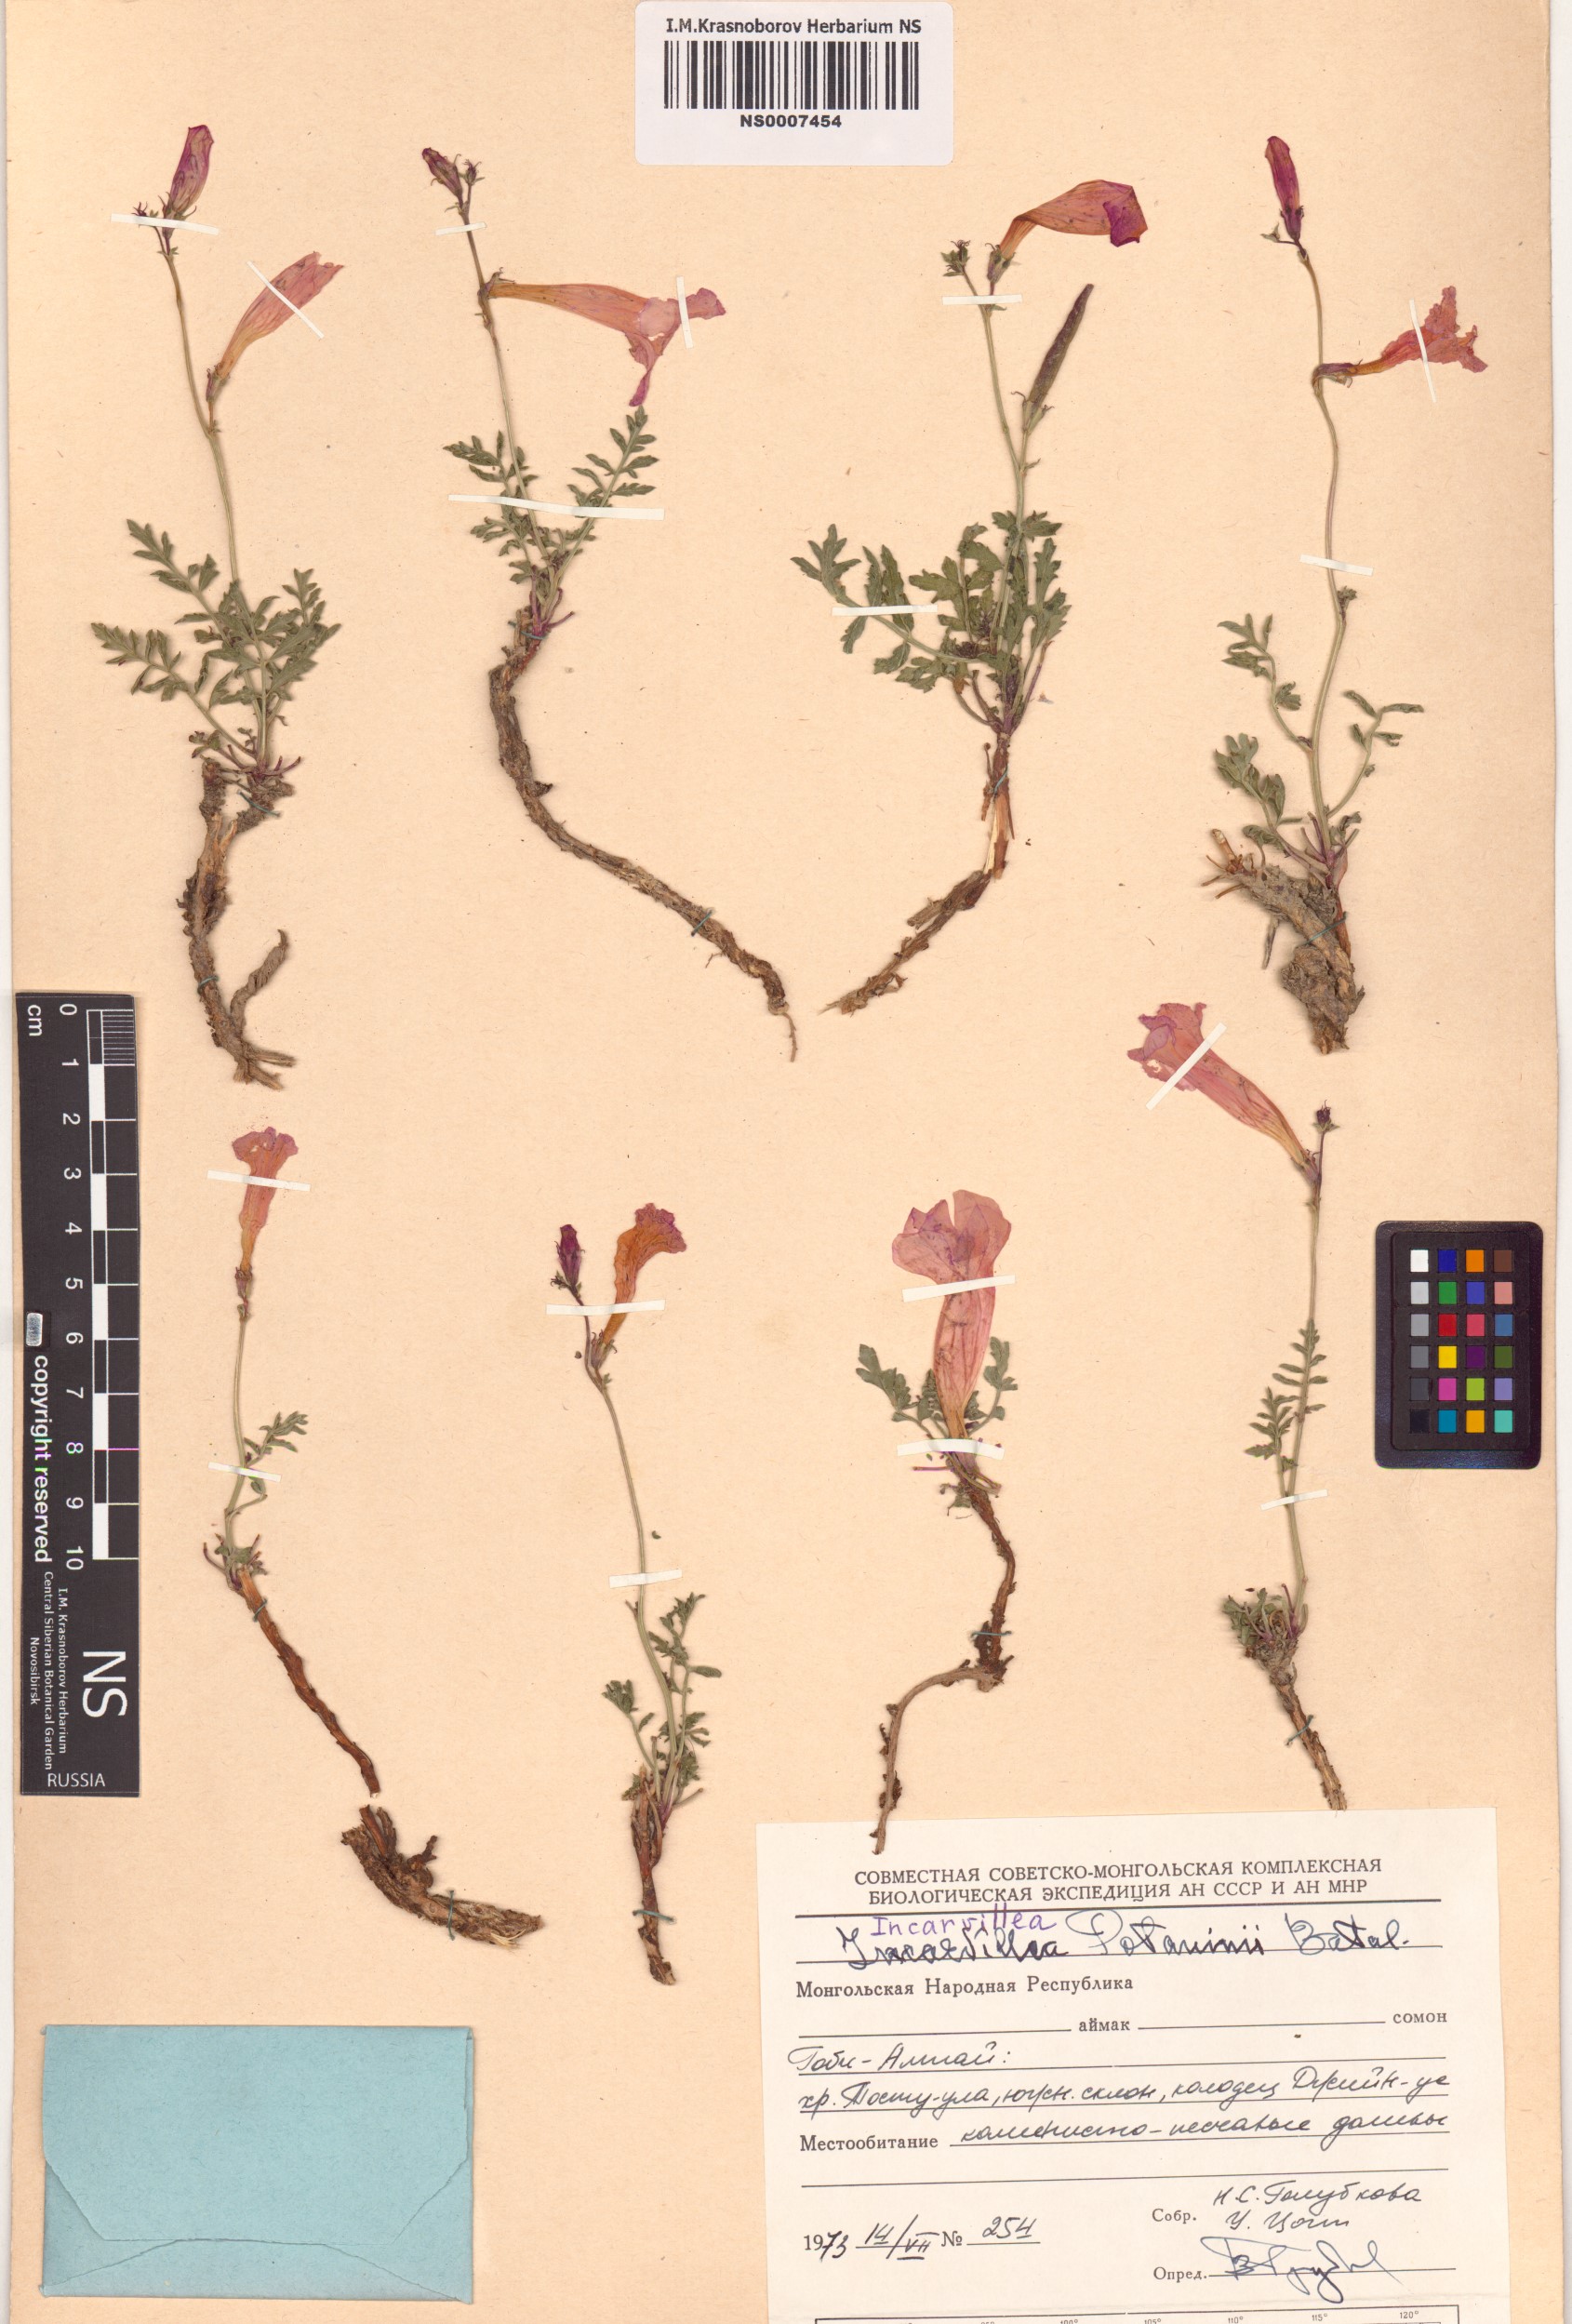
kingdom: Plantae
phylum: Tracheophyta
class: Magnoliopsida
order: Lamiales
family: Bignoniaceae
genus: Incarvillea
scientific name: Incarvillea potaninii
